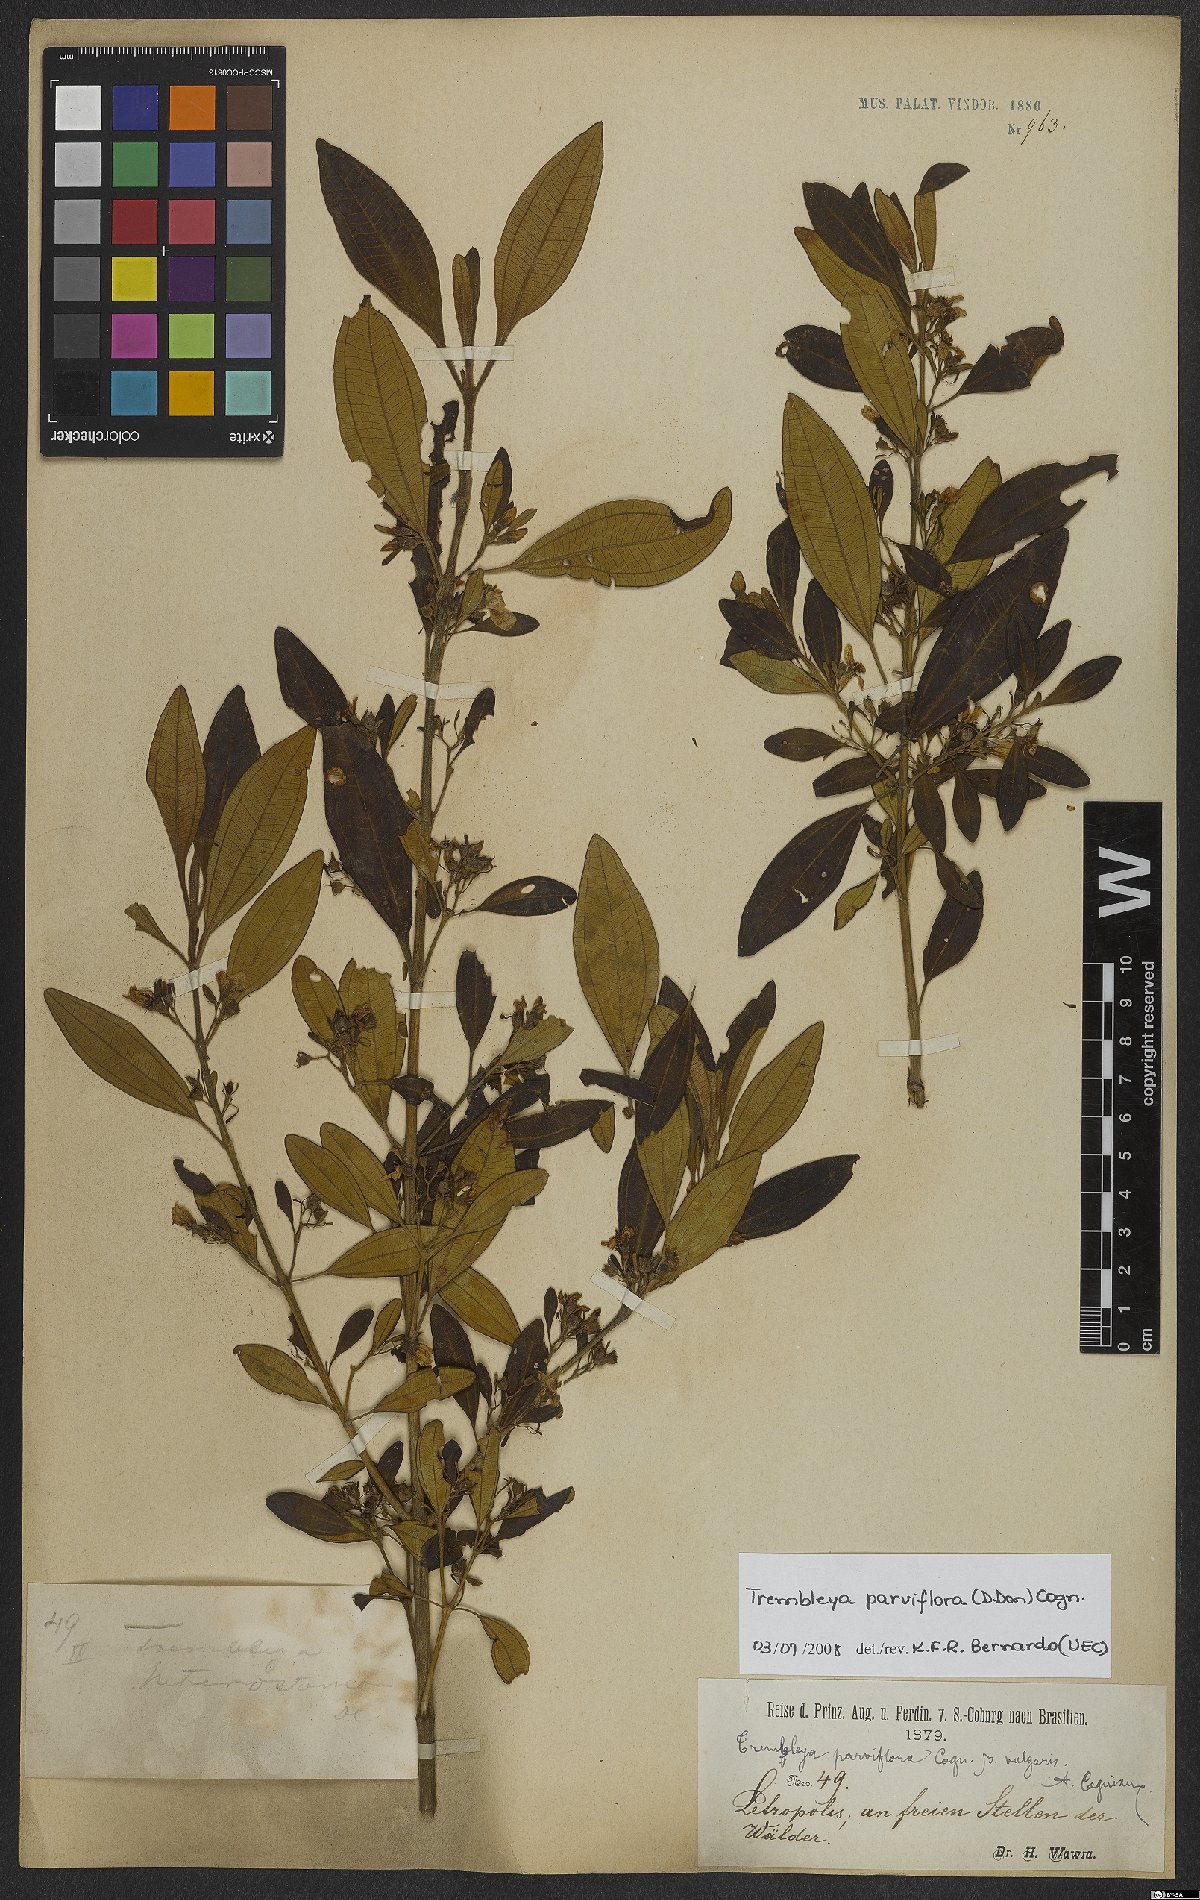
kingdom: Plantae
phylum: Tracheophyta
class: Magnoliopsida
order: Myrtales
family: Melastomataceae
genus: Microlicia
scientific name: Microlicia parviflora
